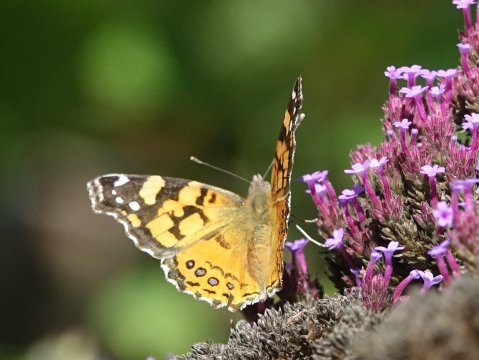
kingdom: Animalia
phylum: Arthropoda
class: Insecta
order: Lepidoptera
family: Nymphalidae
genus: Vanessa
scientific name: Vanessa annabella
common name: West Coast Lady
